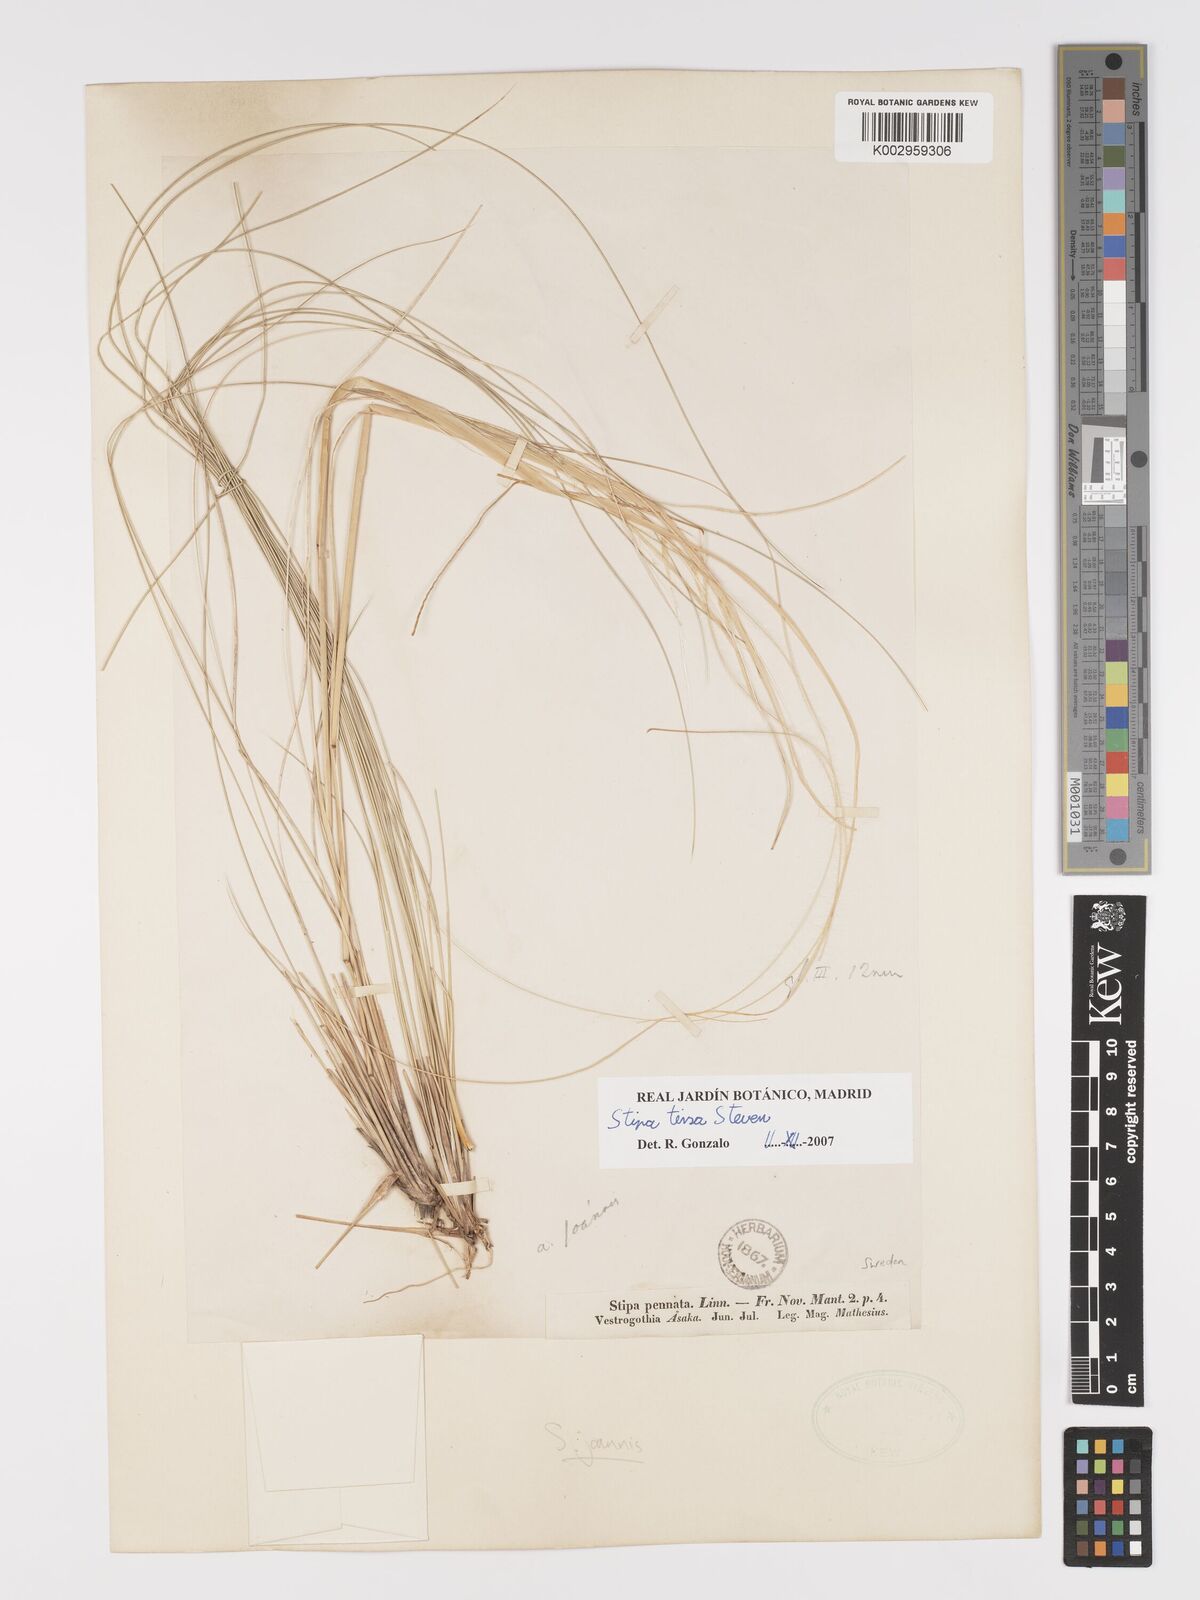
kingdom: Plantae
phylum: Tracheophyta
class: Liliopsida
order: Poales
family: Poaceae
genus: Stipa
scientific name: Stipa tirsa
